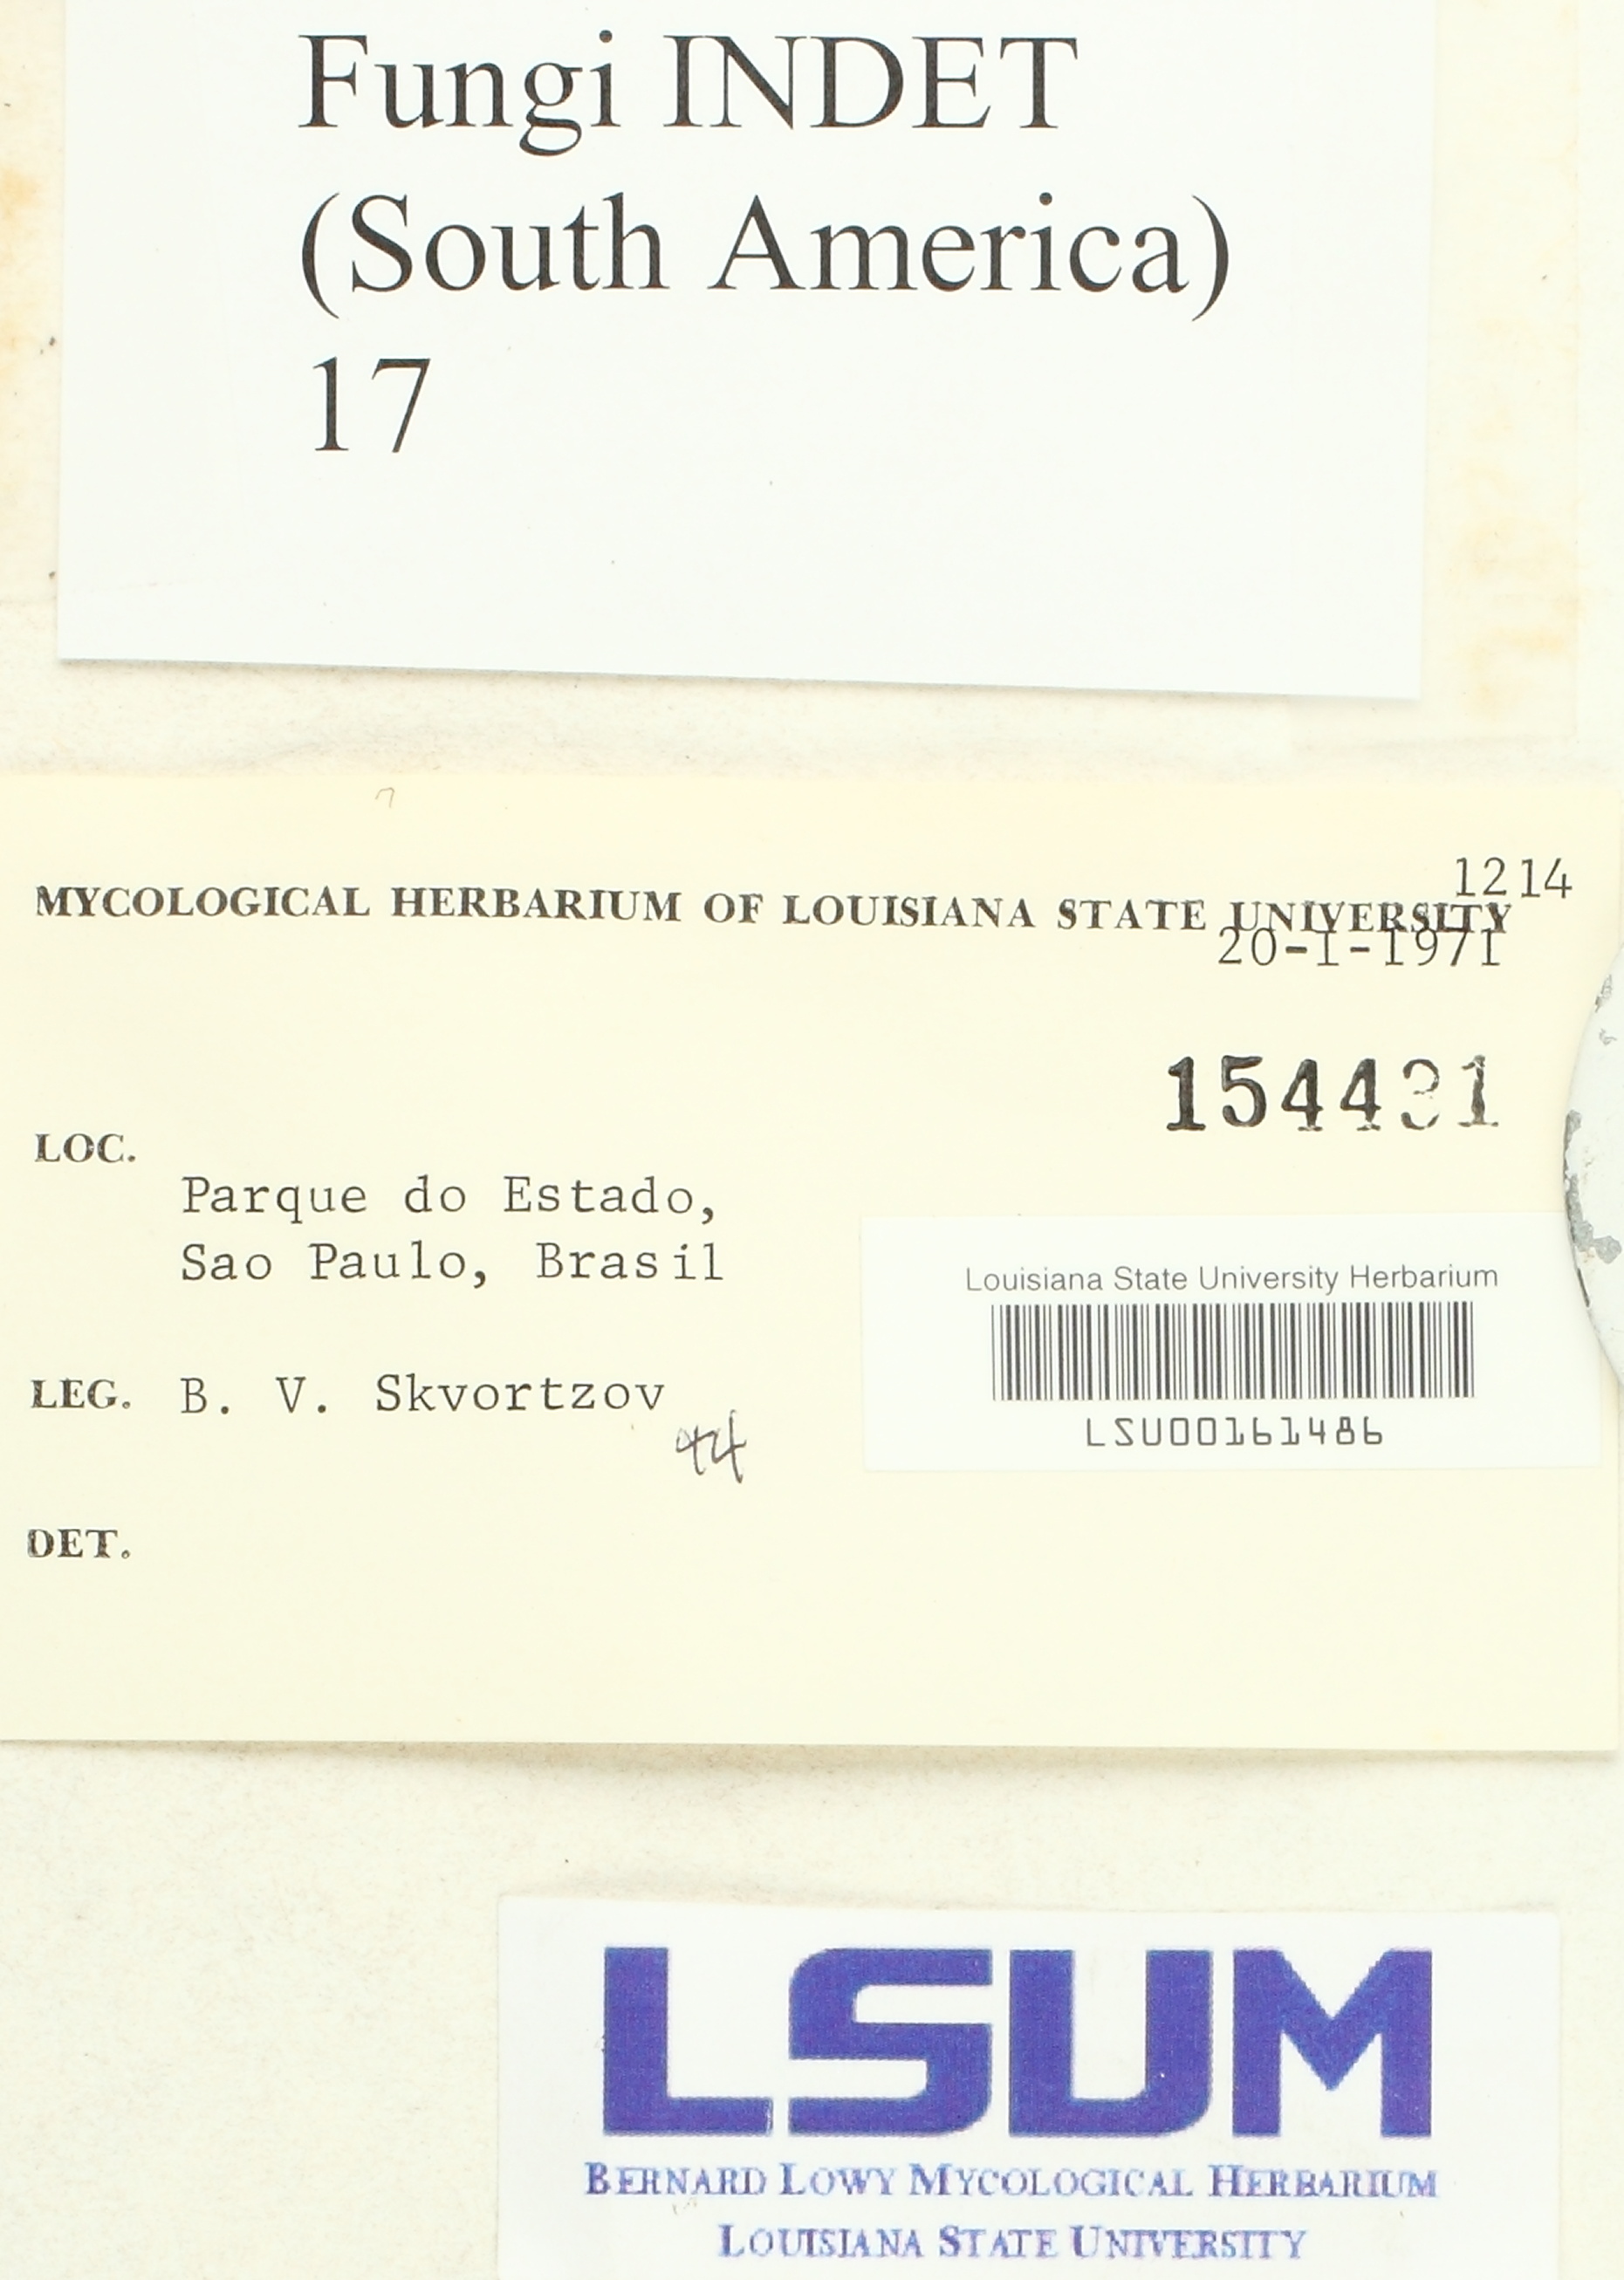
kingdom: Fungi
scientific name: Fungi
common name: Fungi
